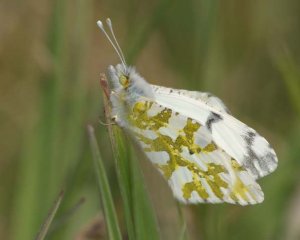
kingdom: Animalia
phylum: Arthropoda
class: Insecta
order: Lepidoptera
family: Pieridae
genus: Euchloe
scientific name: Euchloe ausonides
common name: Large Marble
